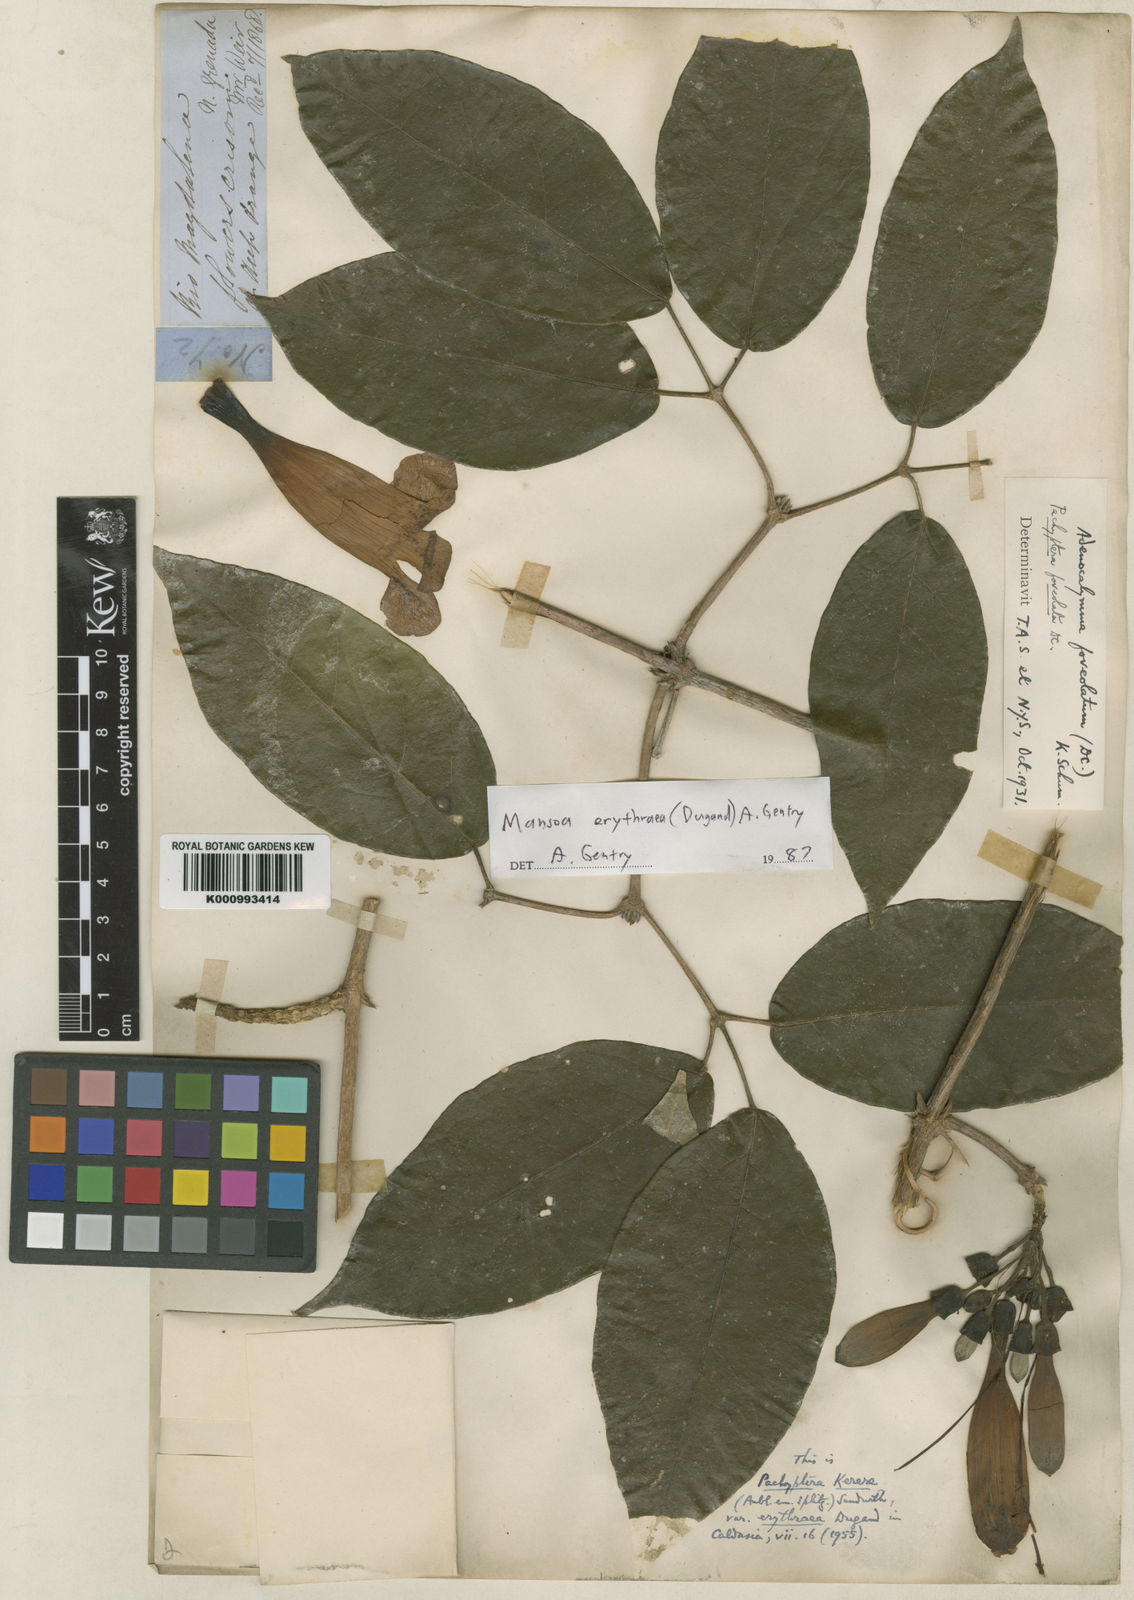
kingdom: Plantae
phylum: Tracheophyta
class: Magnoliopsida
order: Lamiales
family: Bignoniaceae
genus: Pachyptera
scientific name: Pachyptera erythraea
